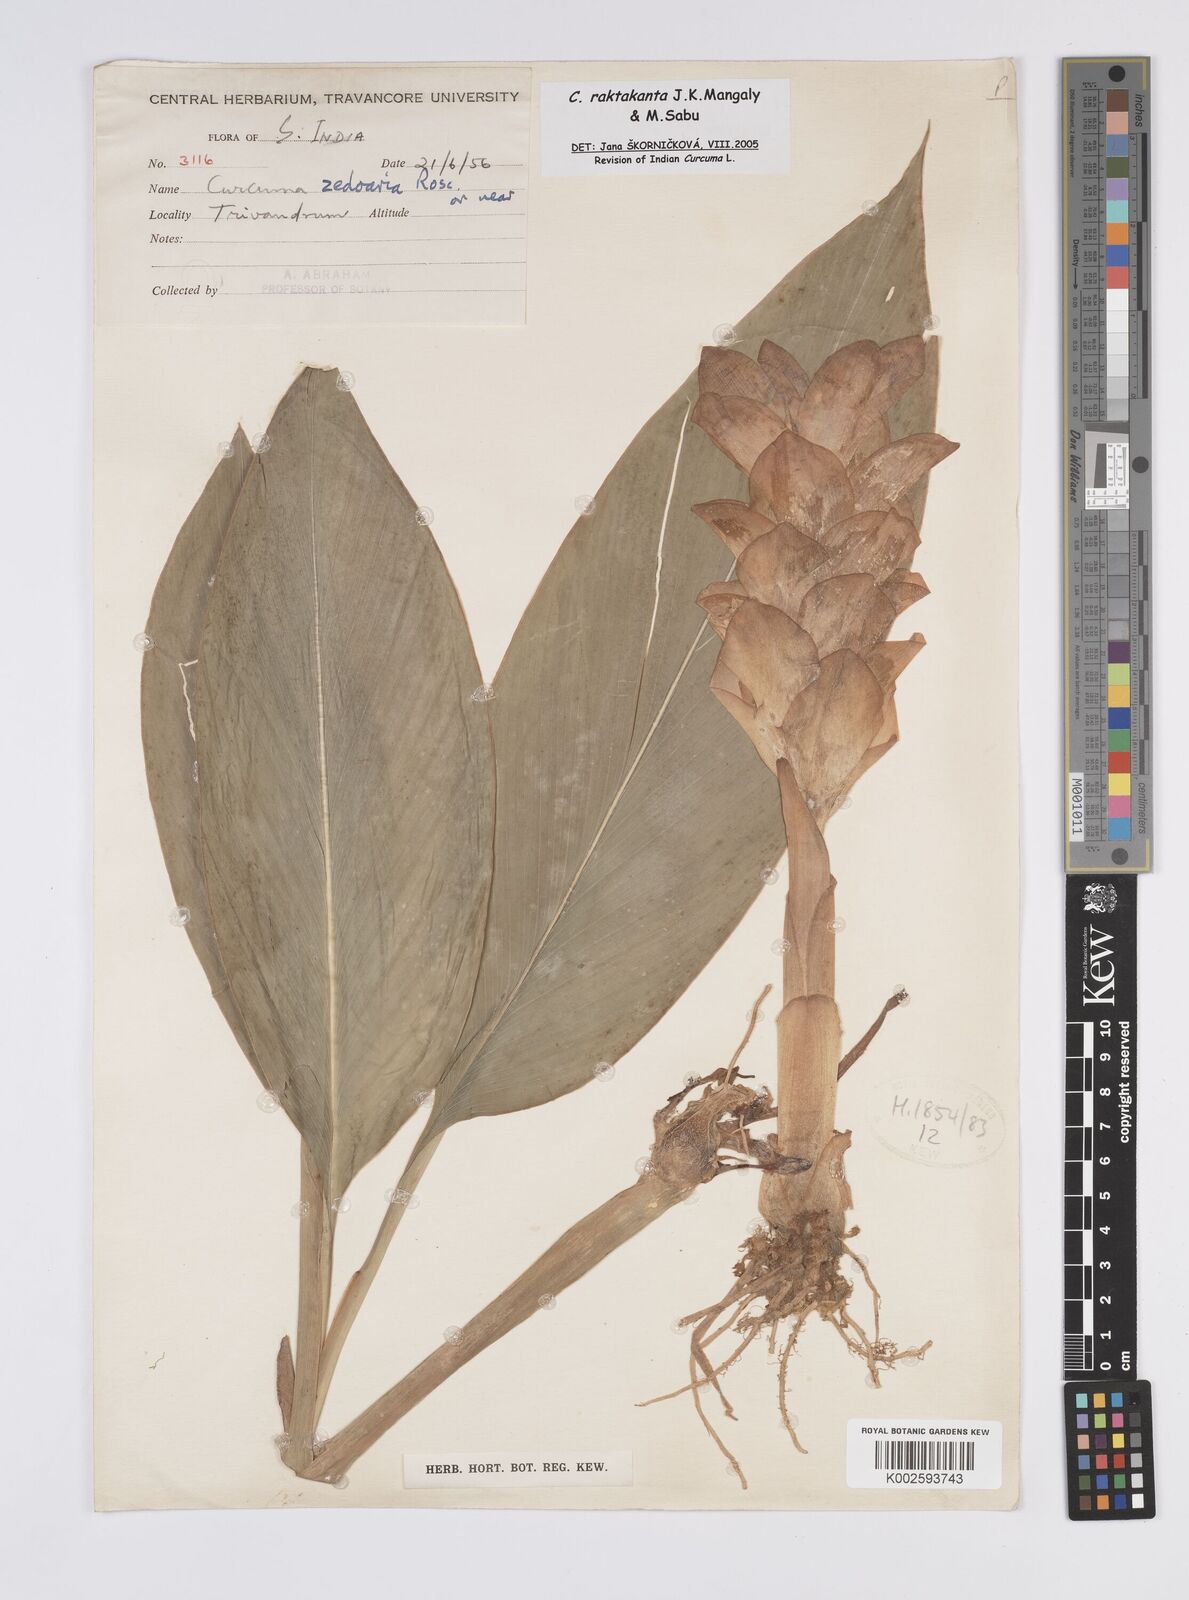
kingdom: Plantae
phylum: Tracheophyta
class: Liliopsida
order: Zingiberales
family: Zingiberaceae
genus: Curcuma
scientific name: Curcuma zedoaria
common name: Zedoary
